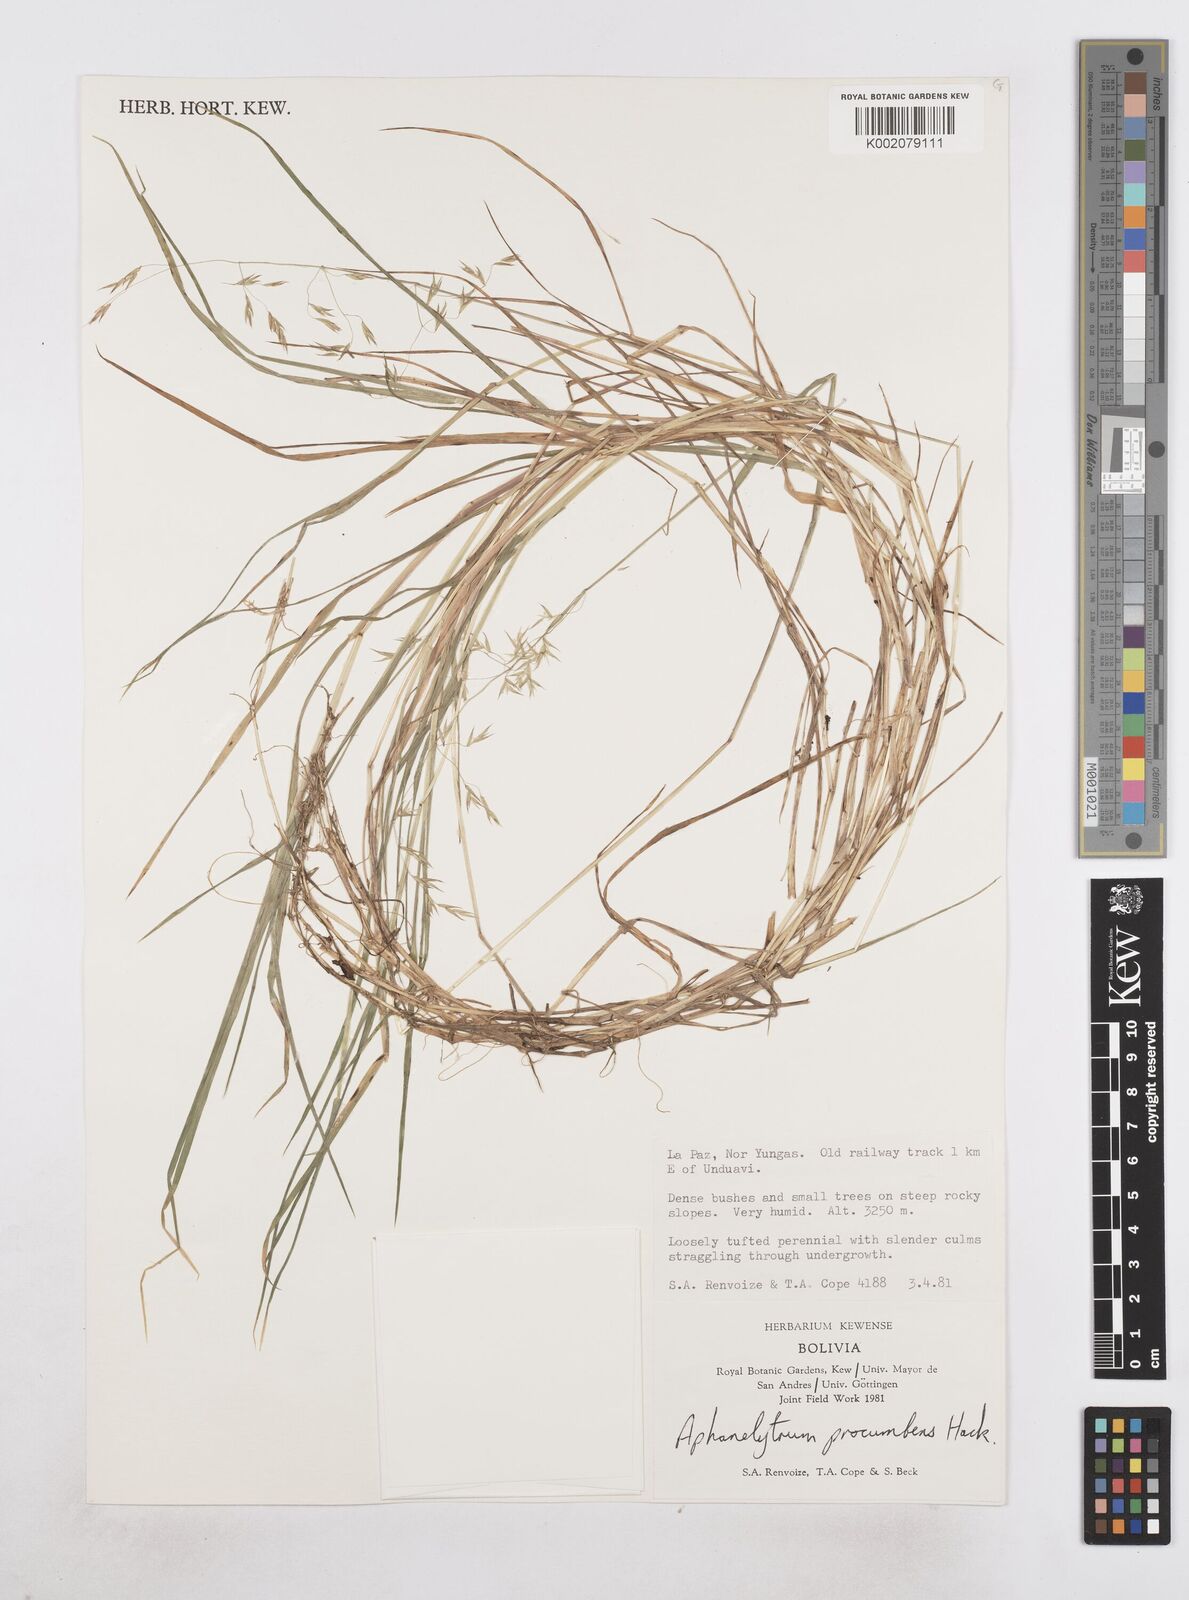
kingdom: Plantae
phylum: Tracheophyta
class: Liliopsida
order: Poales
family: Poaceae
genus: Poa
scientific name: Poa hitchcockiana
